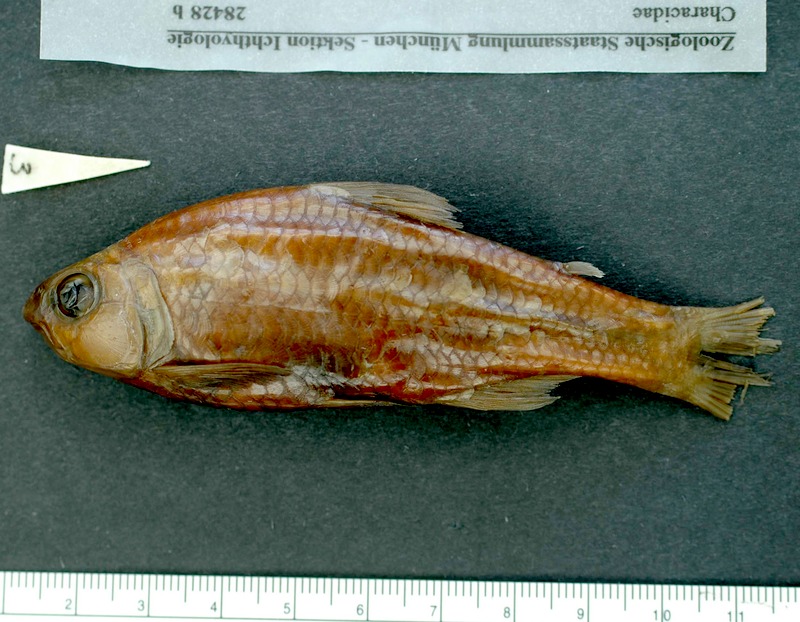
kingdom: Animalia
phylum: Chordata
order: Characiformes
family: Characidae
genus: Creagrutus
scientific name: Creagrutus amoenus
